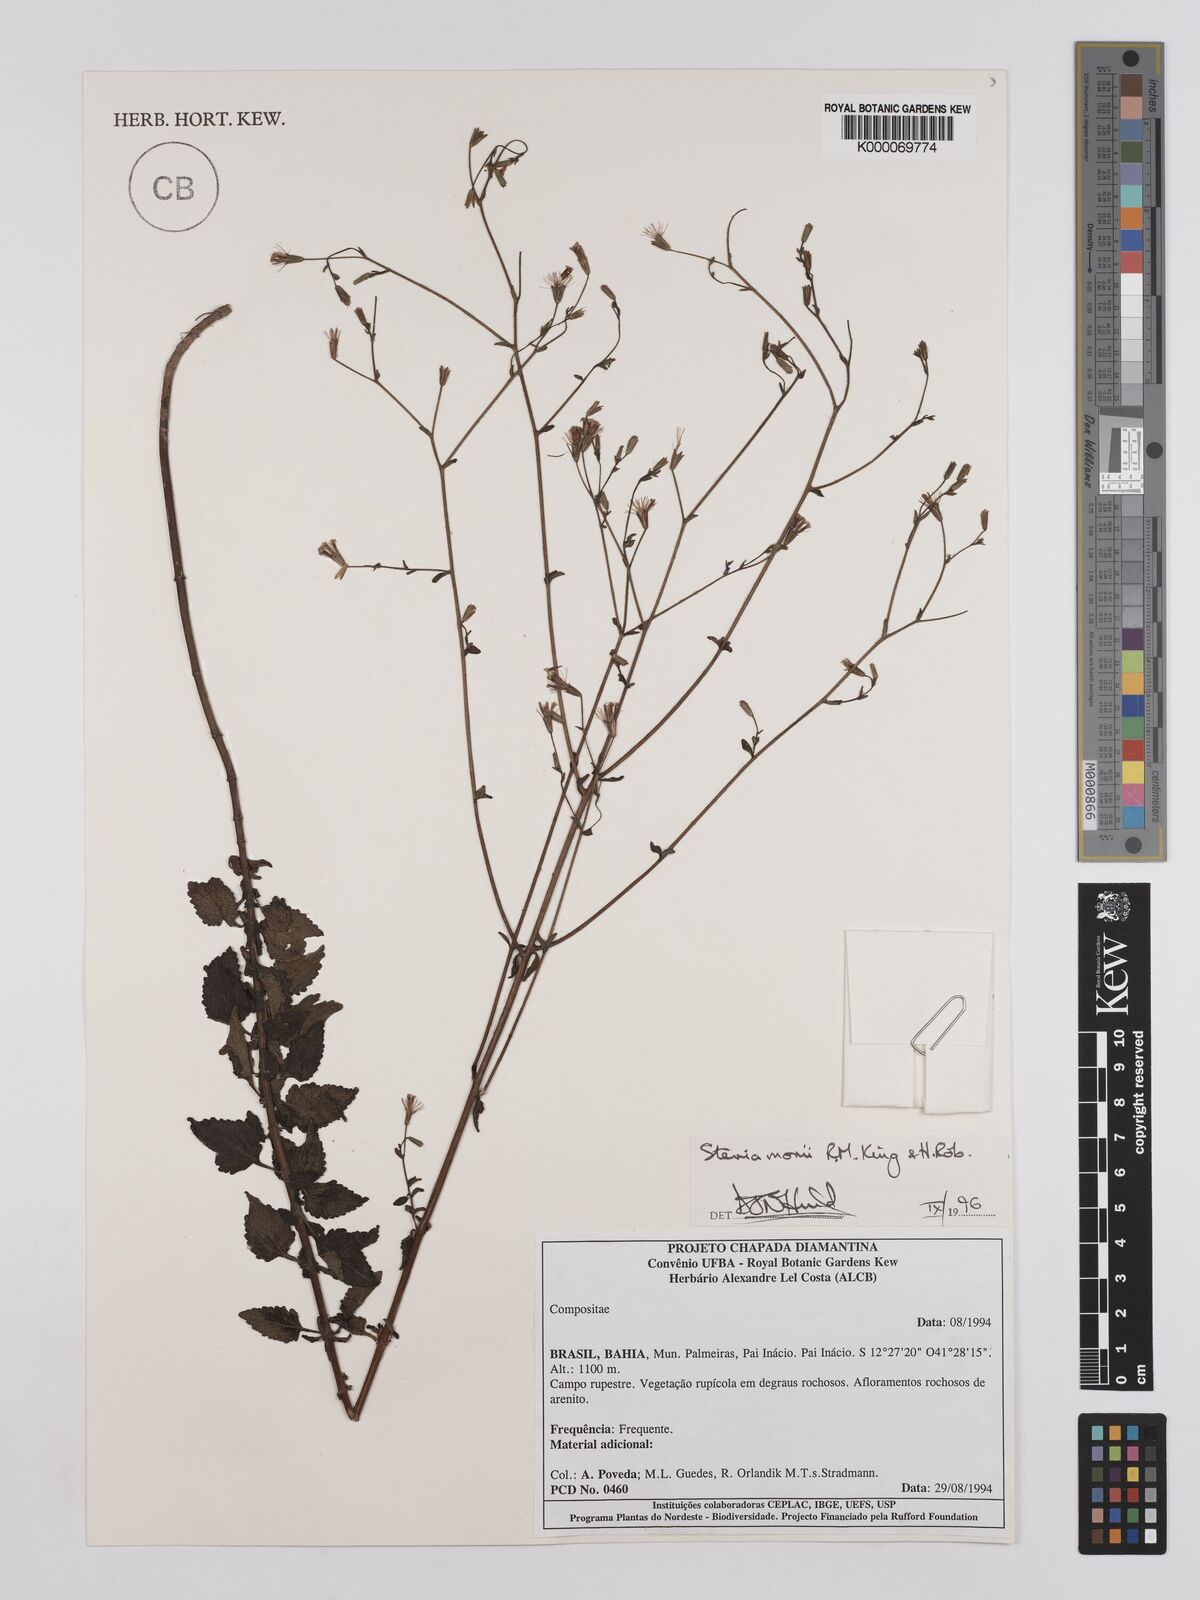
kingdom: Plantae
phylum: Tracheophyta
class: Magnoliopsida
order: Asterales
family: Asteraceae
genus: Stevia
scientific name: Stevia morii
